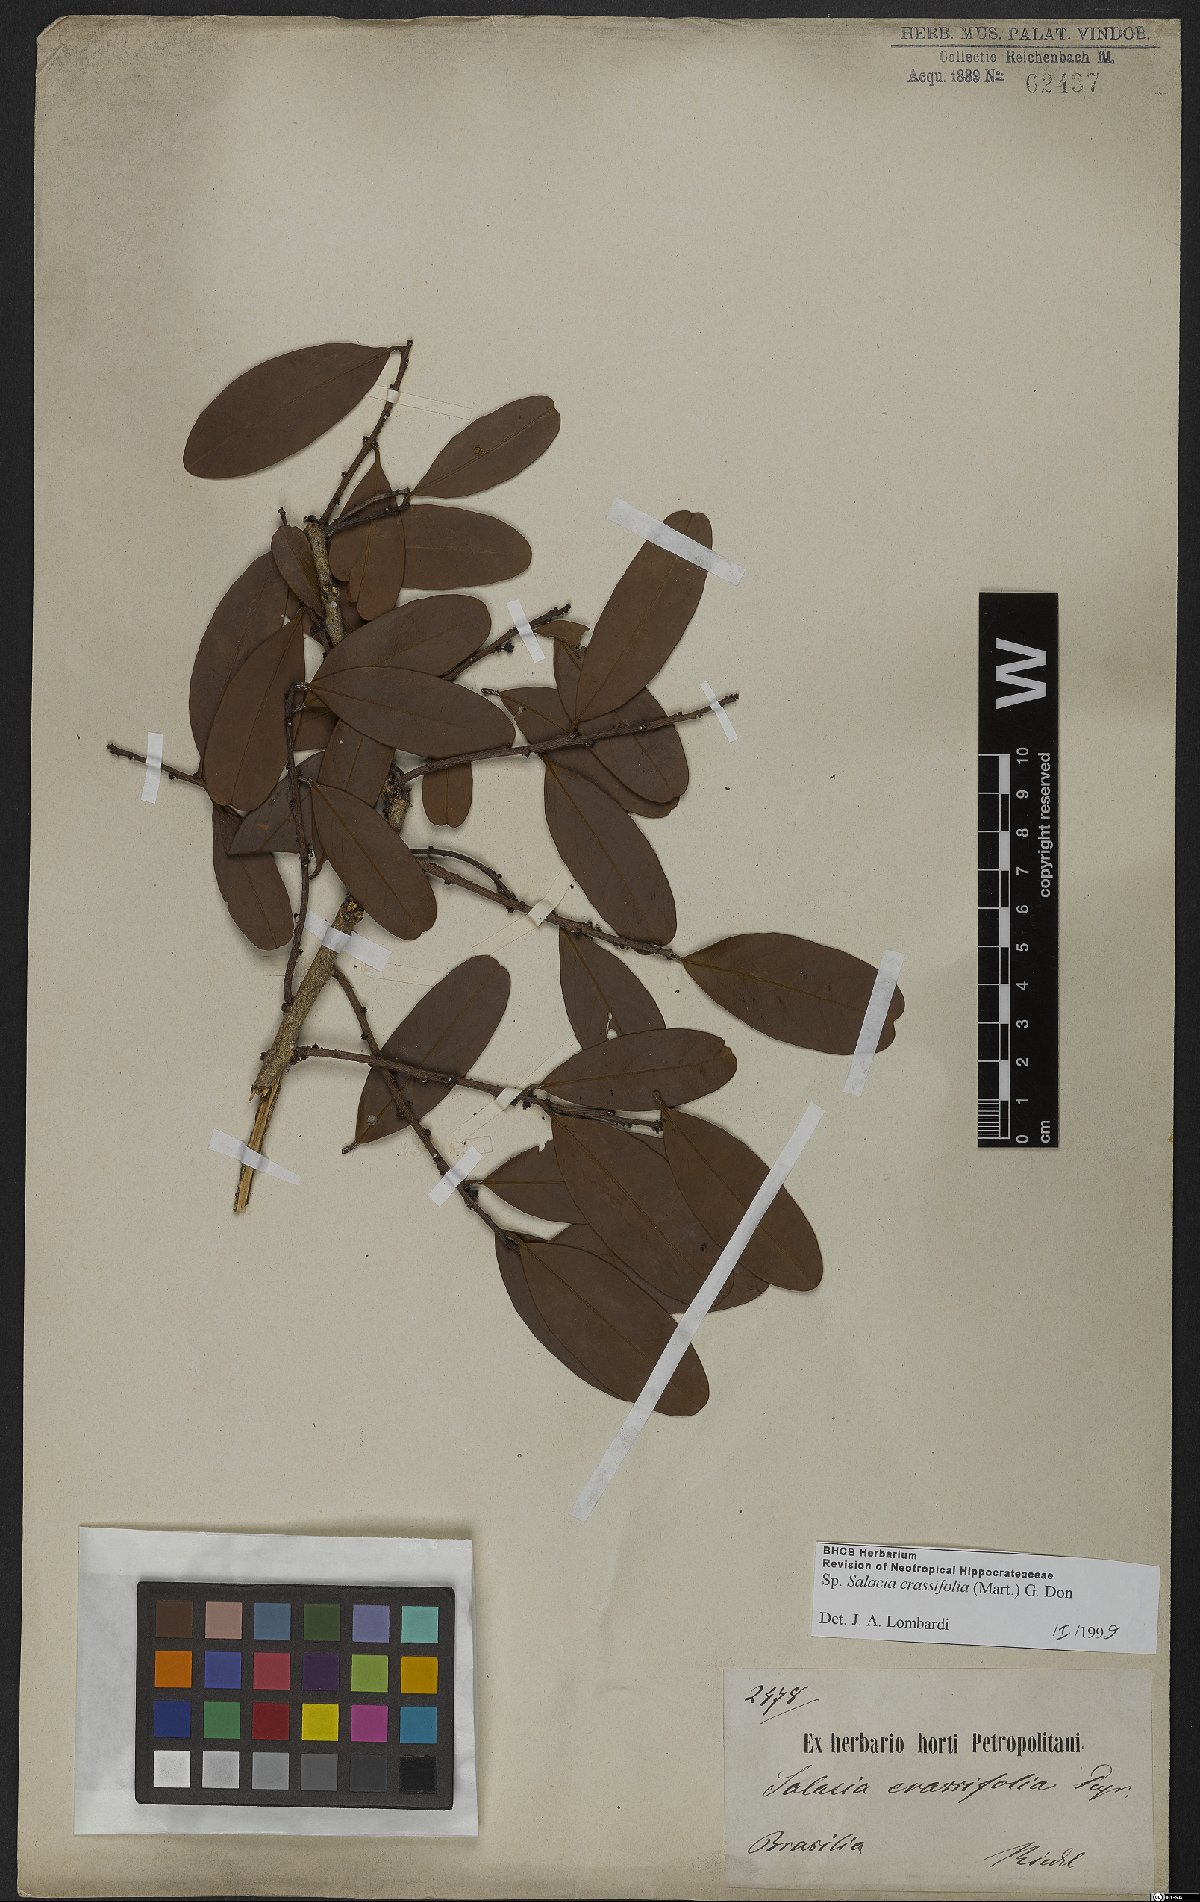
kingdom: Plantae
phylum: Tracheophyta
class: Magnoliopsida
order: Celastrales
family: Celastraceae
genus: Salacia
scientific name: Salacia crassifolia
